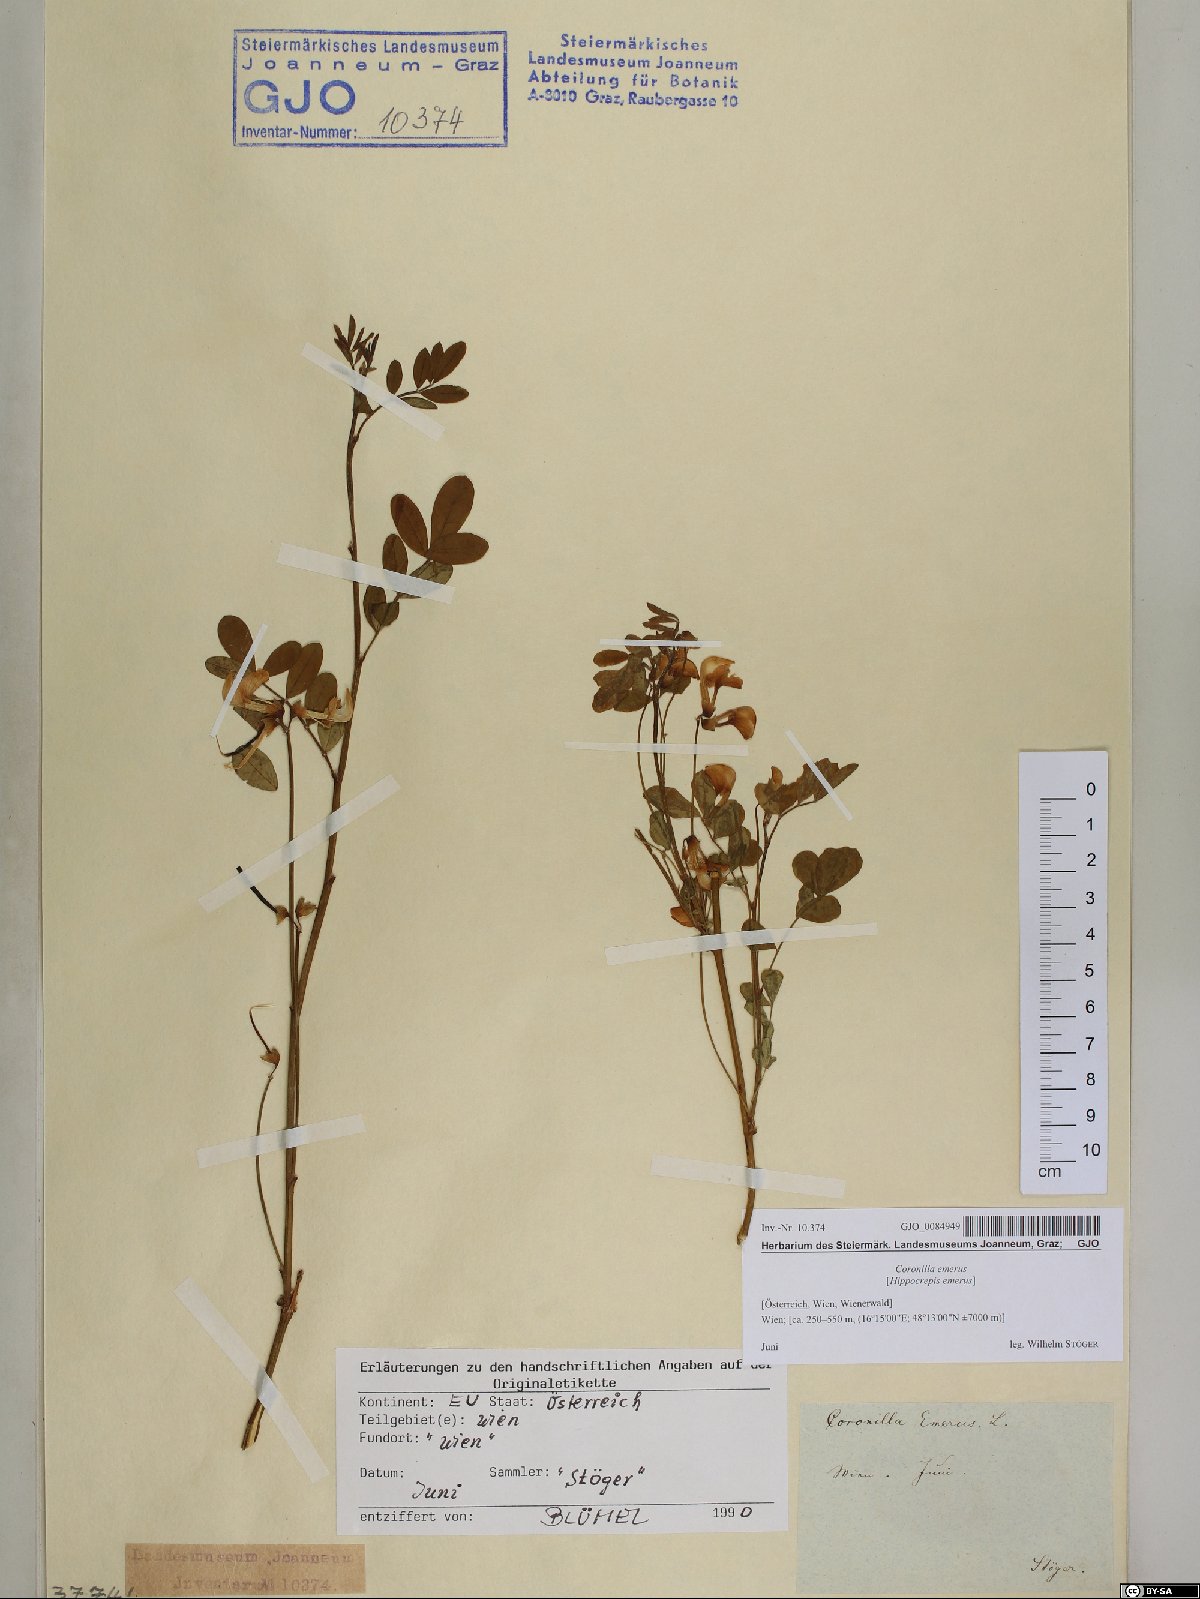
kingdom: Plantae
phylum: Tracheophyta
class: Magnoliopsida
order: Fabales
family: Fabaceae
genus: Hippocrepis
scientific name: Hippocrepis emerus
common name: Scorpion senna
